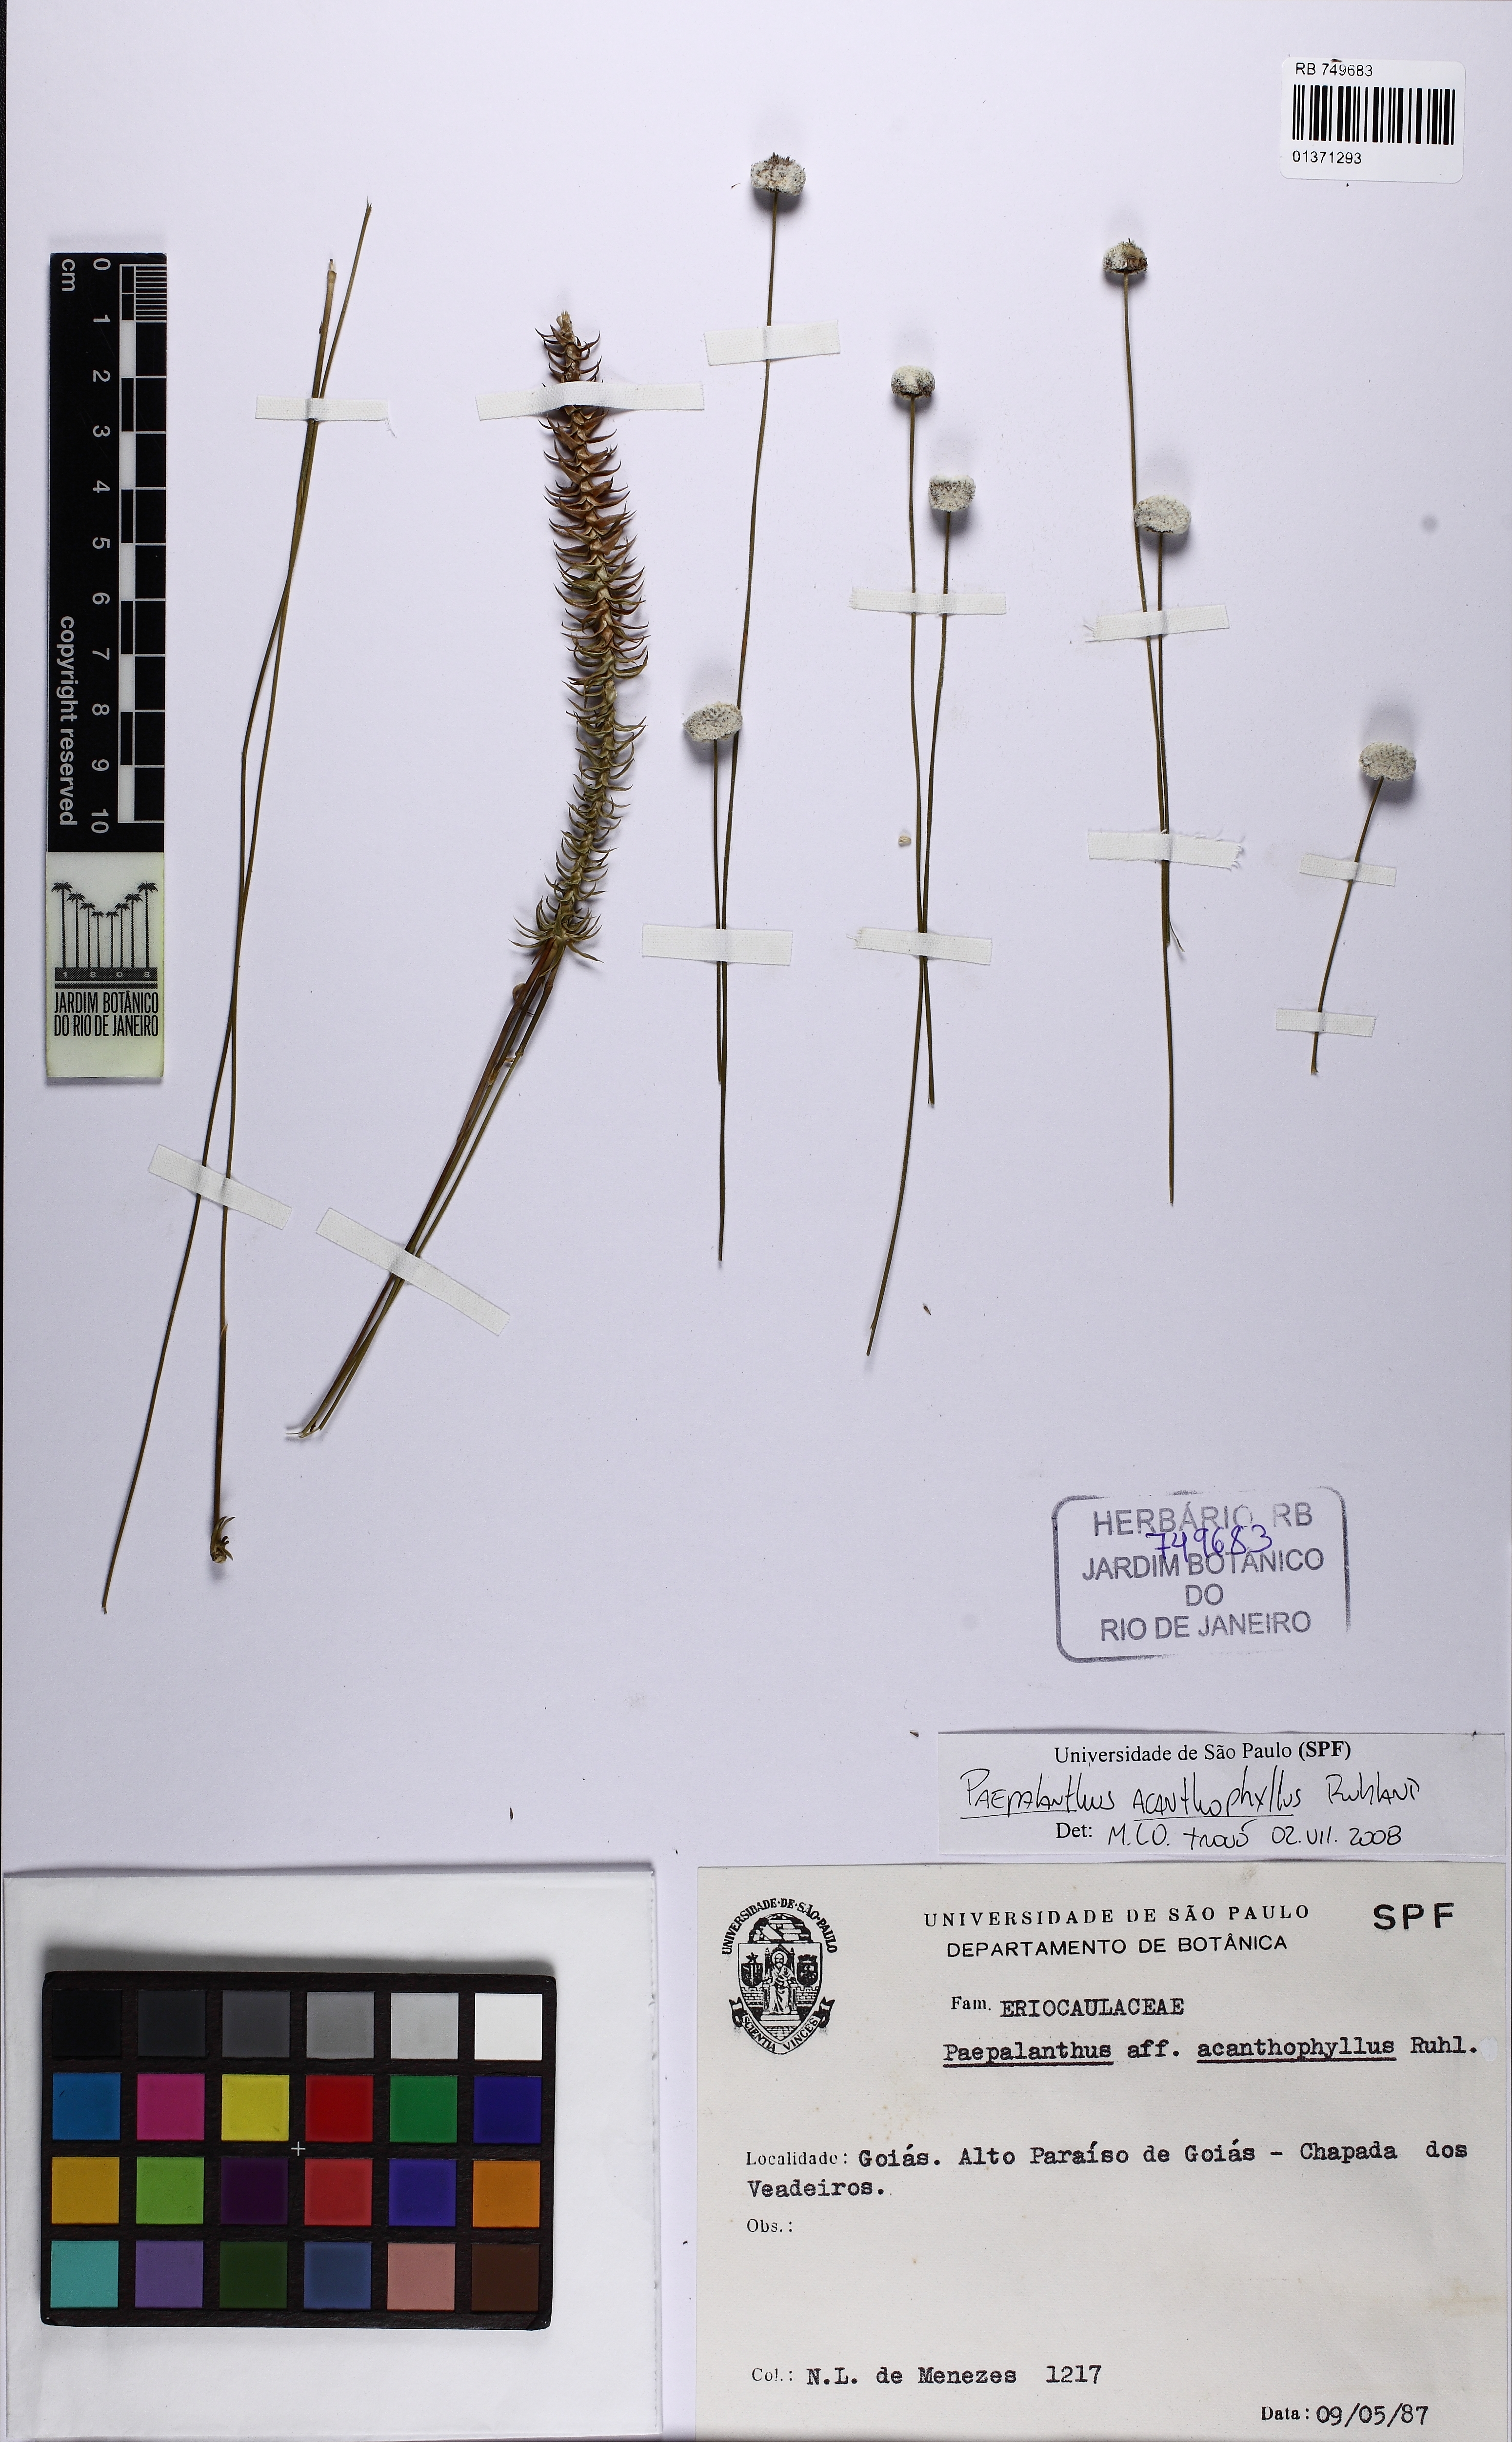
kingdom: Plantae
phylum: Tracheophyta
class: Liliopsida
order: Poales
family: Eriocaulaceae
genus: Paepalanthus
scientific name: Paepalanthus irwinii
